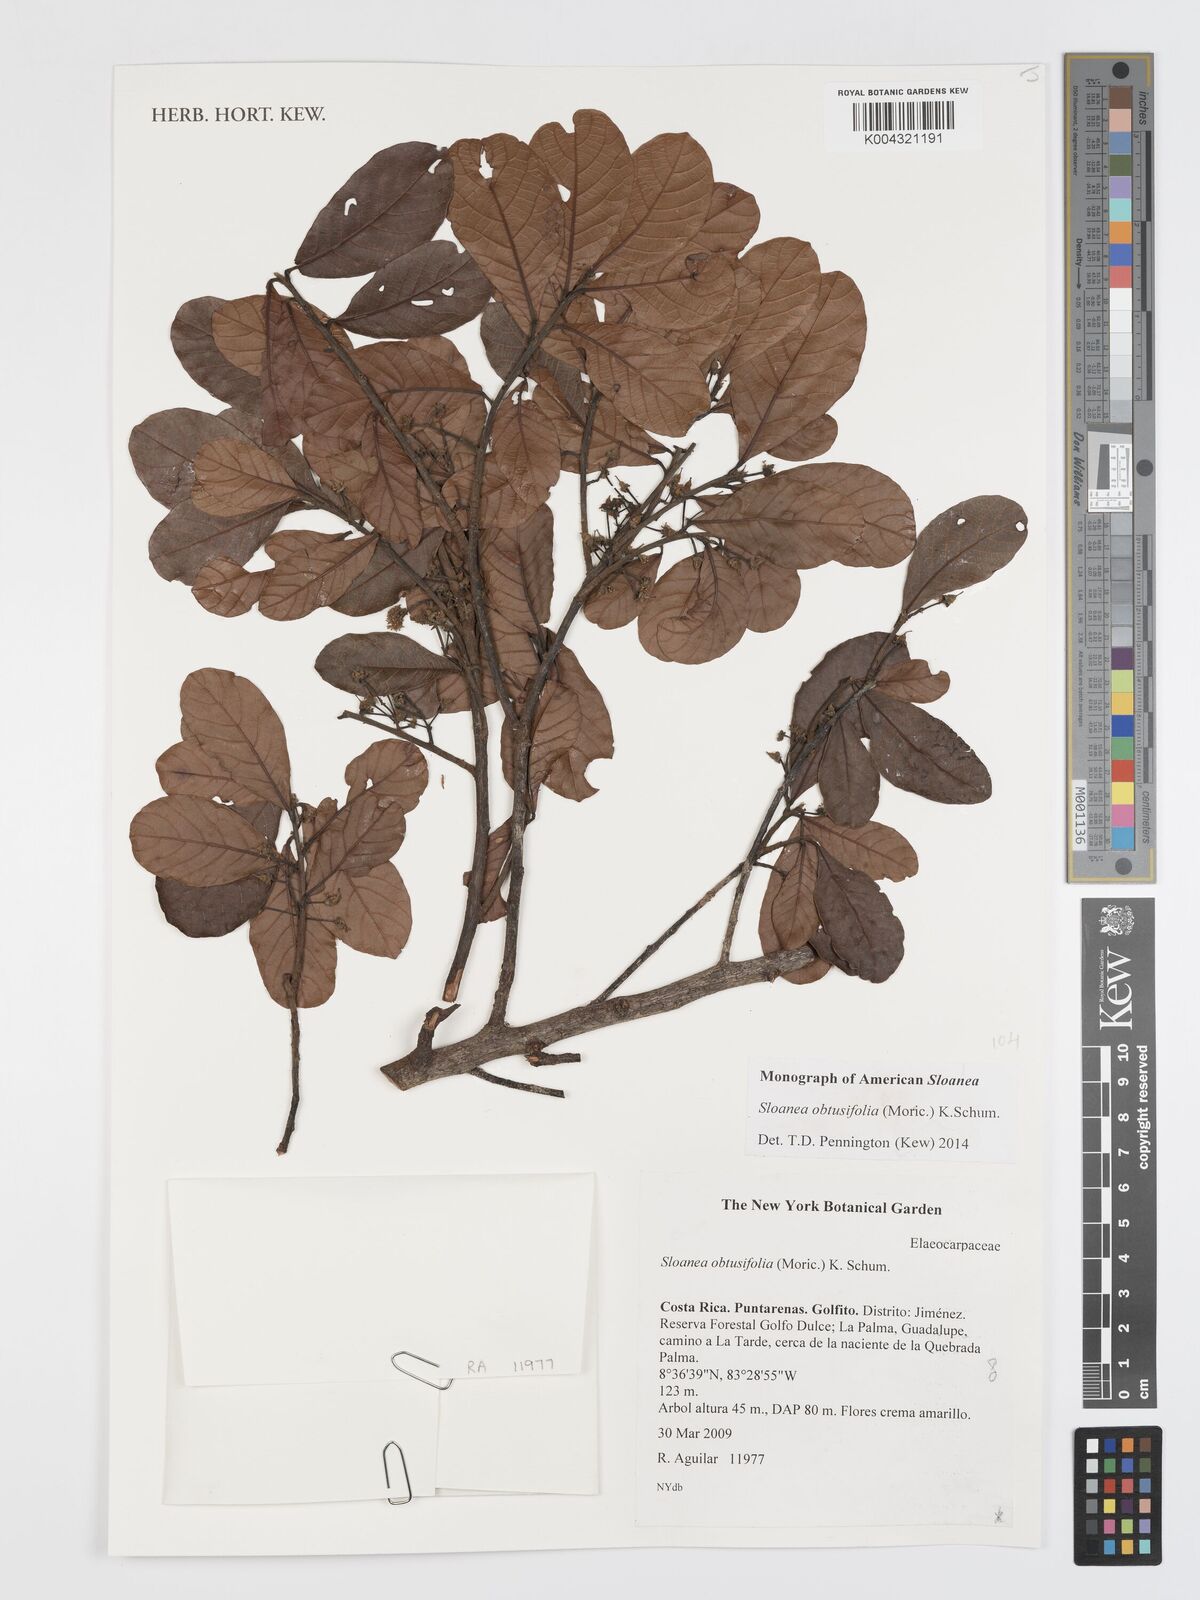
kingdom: Plantae
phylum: Tracheophyta
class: Magnoliopsida
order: Oxalidales
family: Elaeocarpaceae
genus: Sloanea
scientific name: Sloanea obtusifolia
